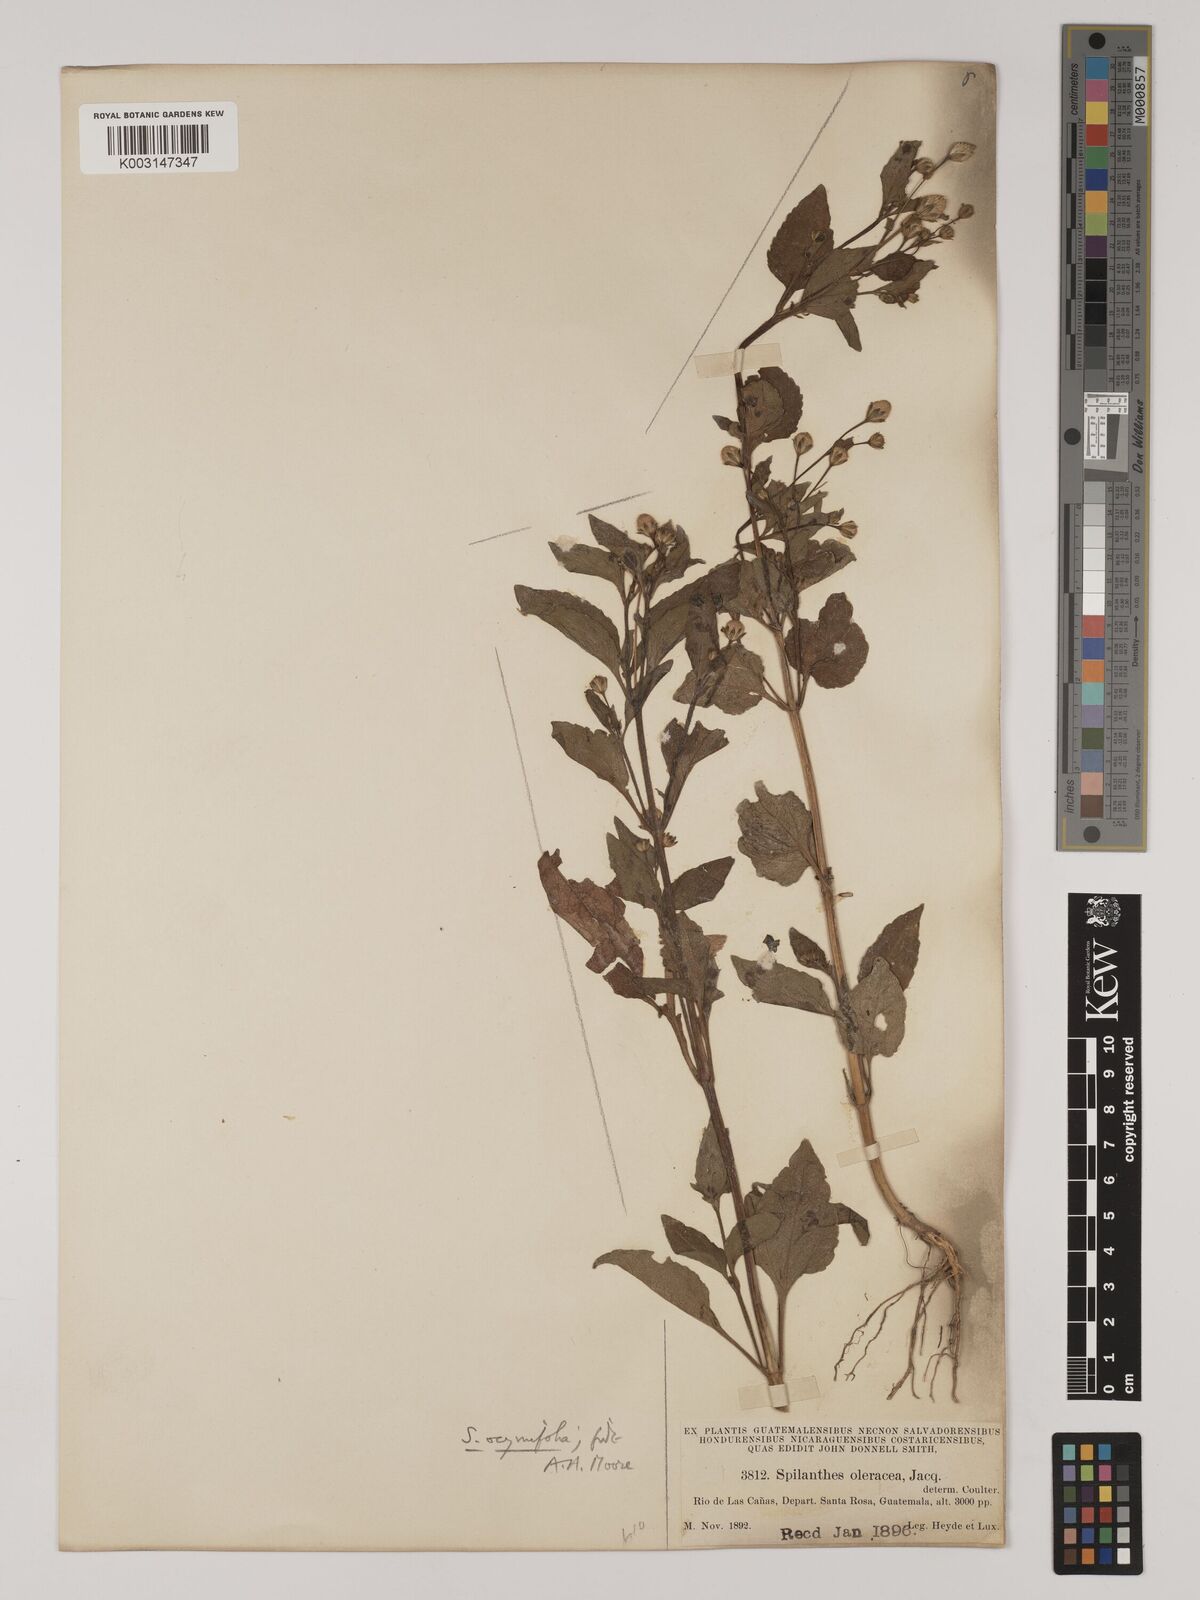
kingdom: Plantae
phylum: Tracheophyta
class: Magnoliopsida
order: Asterales
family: Asteraceae
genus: Acmella
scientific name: Acmella radicans
